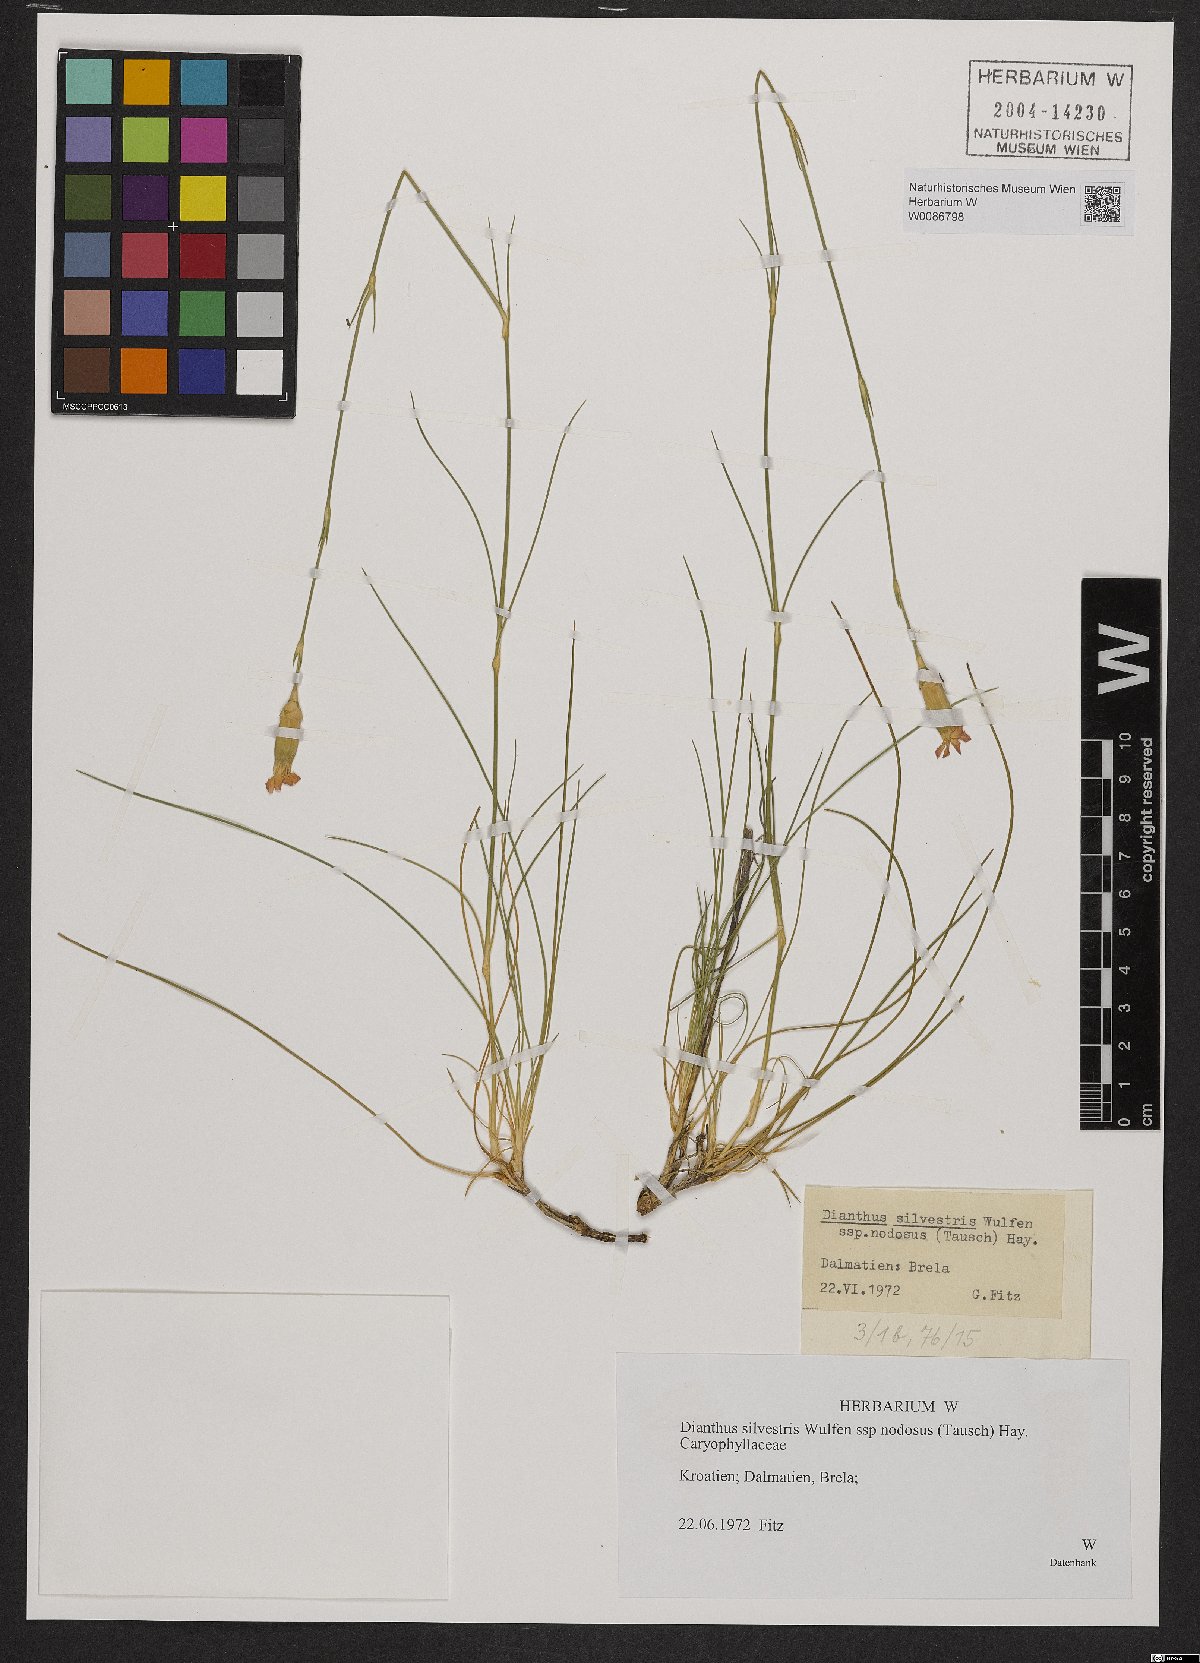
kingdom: Plantae
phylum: Tracheophyta
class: Magnoliopsida
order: Caryophyllales
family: Caryophyllaceae
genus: Dianthus
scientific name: Dianthus sylvestris
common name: Wood pink
